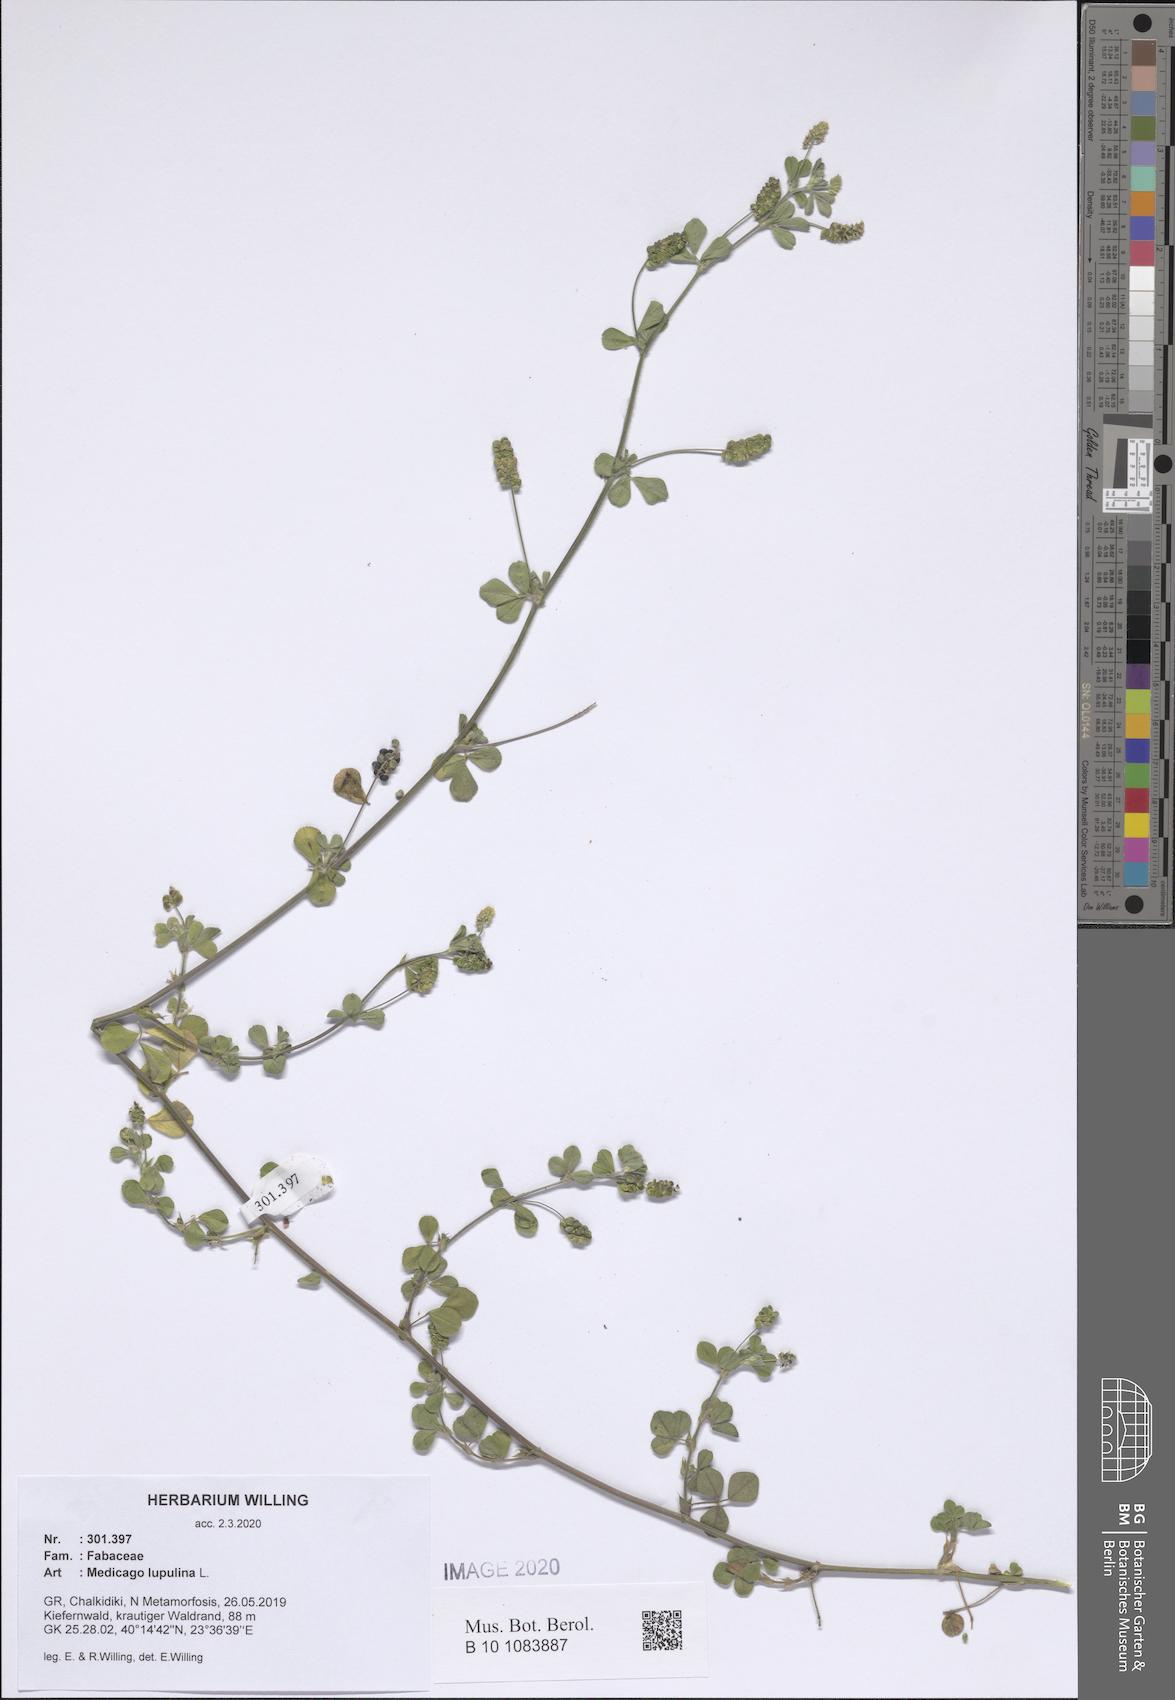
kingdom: Plantae
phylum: Tracheophyta
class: Magnoliopsida
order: Fabales
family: Fabaceae
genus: Medicago
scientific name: Medicago lupulina
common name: Black medick
